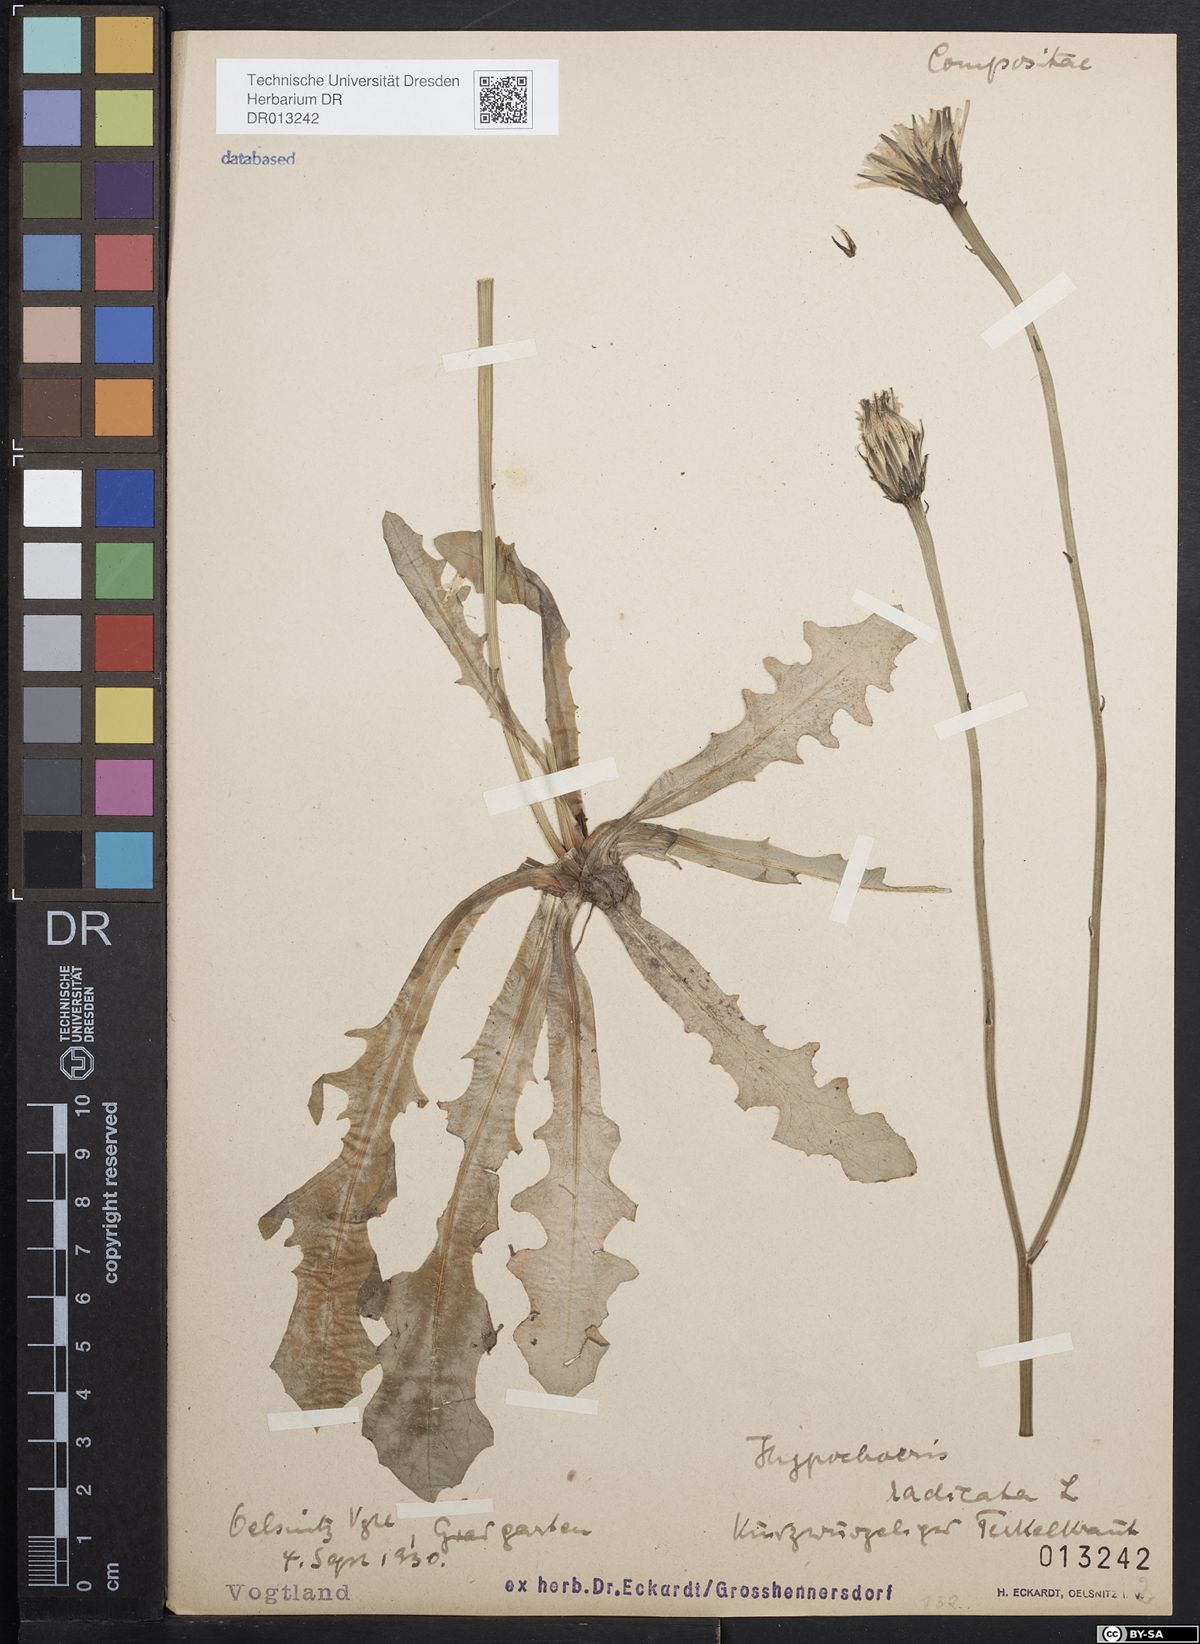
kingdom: Plantae
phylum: Tracheophyta
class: Magnoliopsida
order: Asterales
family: Asteraceae
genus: Hypochaeris
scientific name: Hypochaeris radicata
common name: Flatweed
